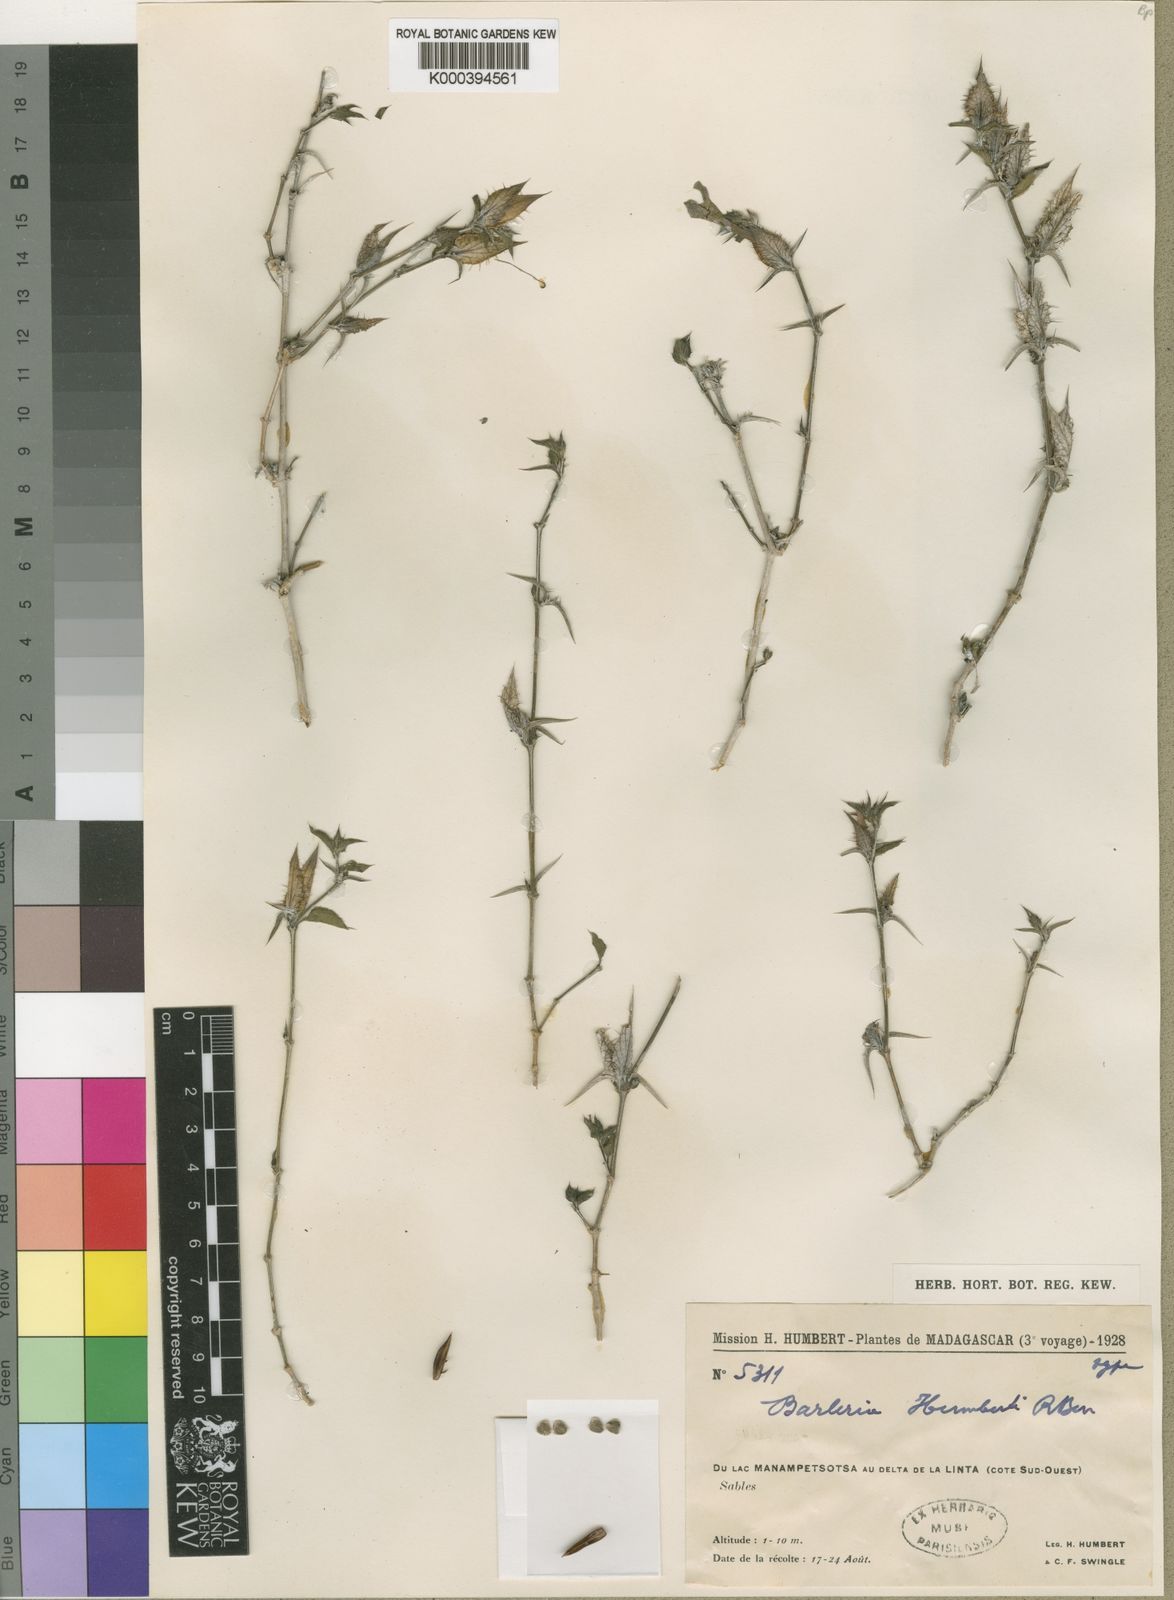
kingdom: Plantae
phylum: Tracheophyta
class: Magnoliopsida
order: Lamiales
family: Acanthaceae
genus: Barleria
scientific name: Barleria humbertii
